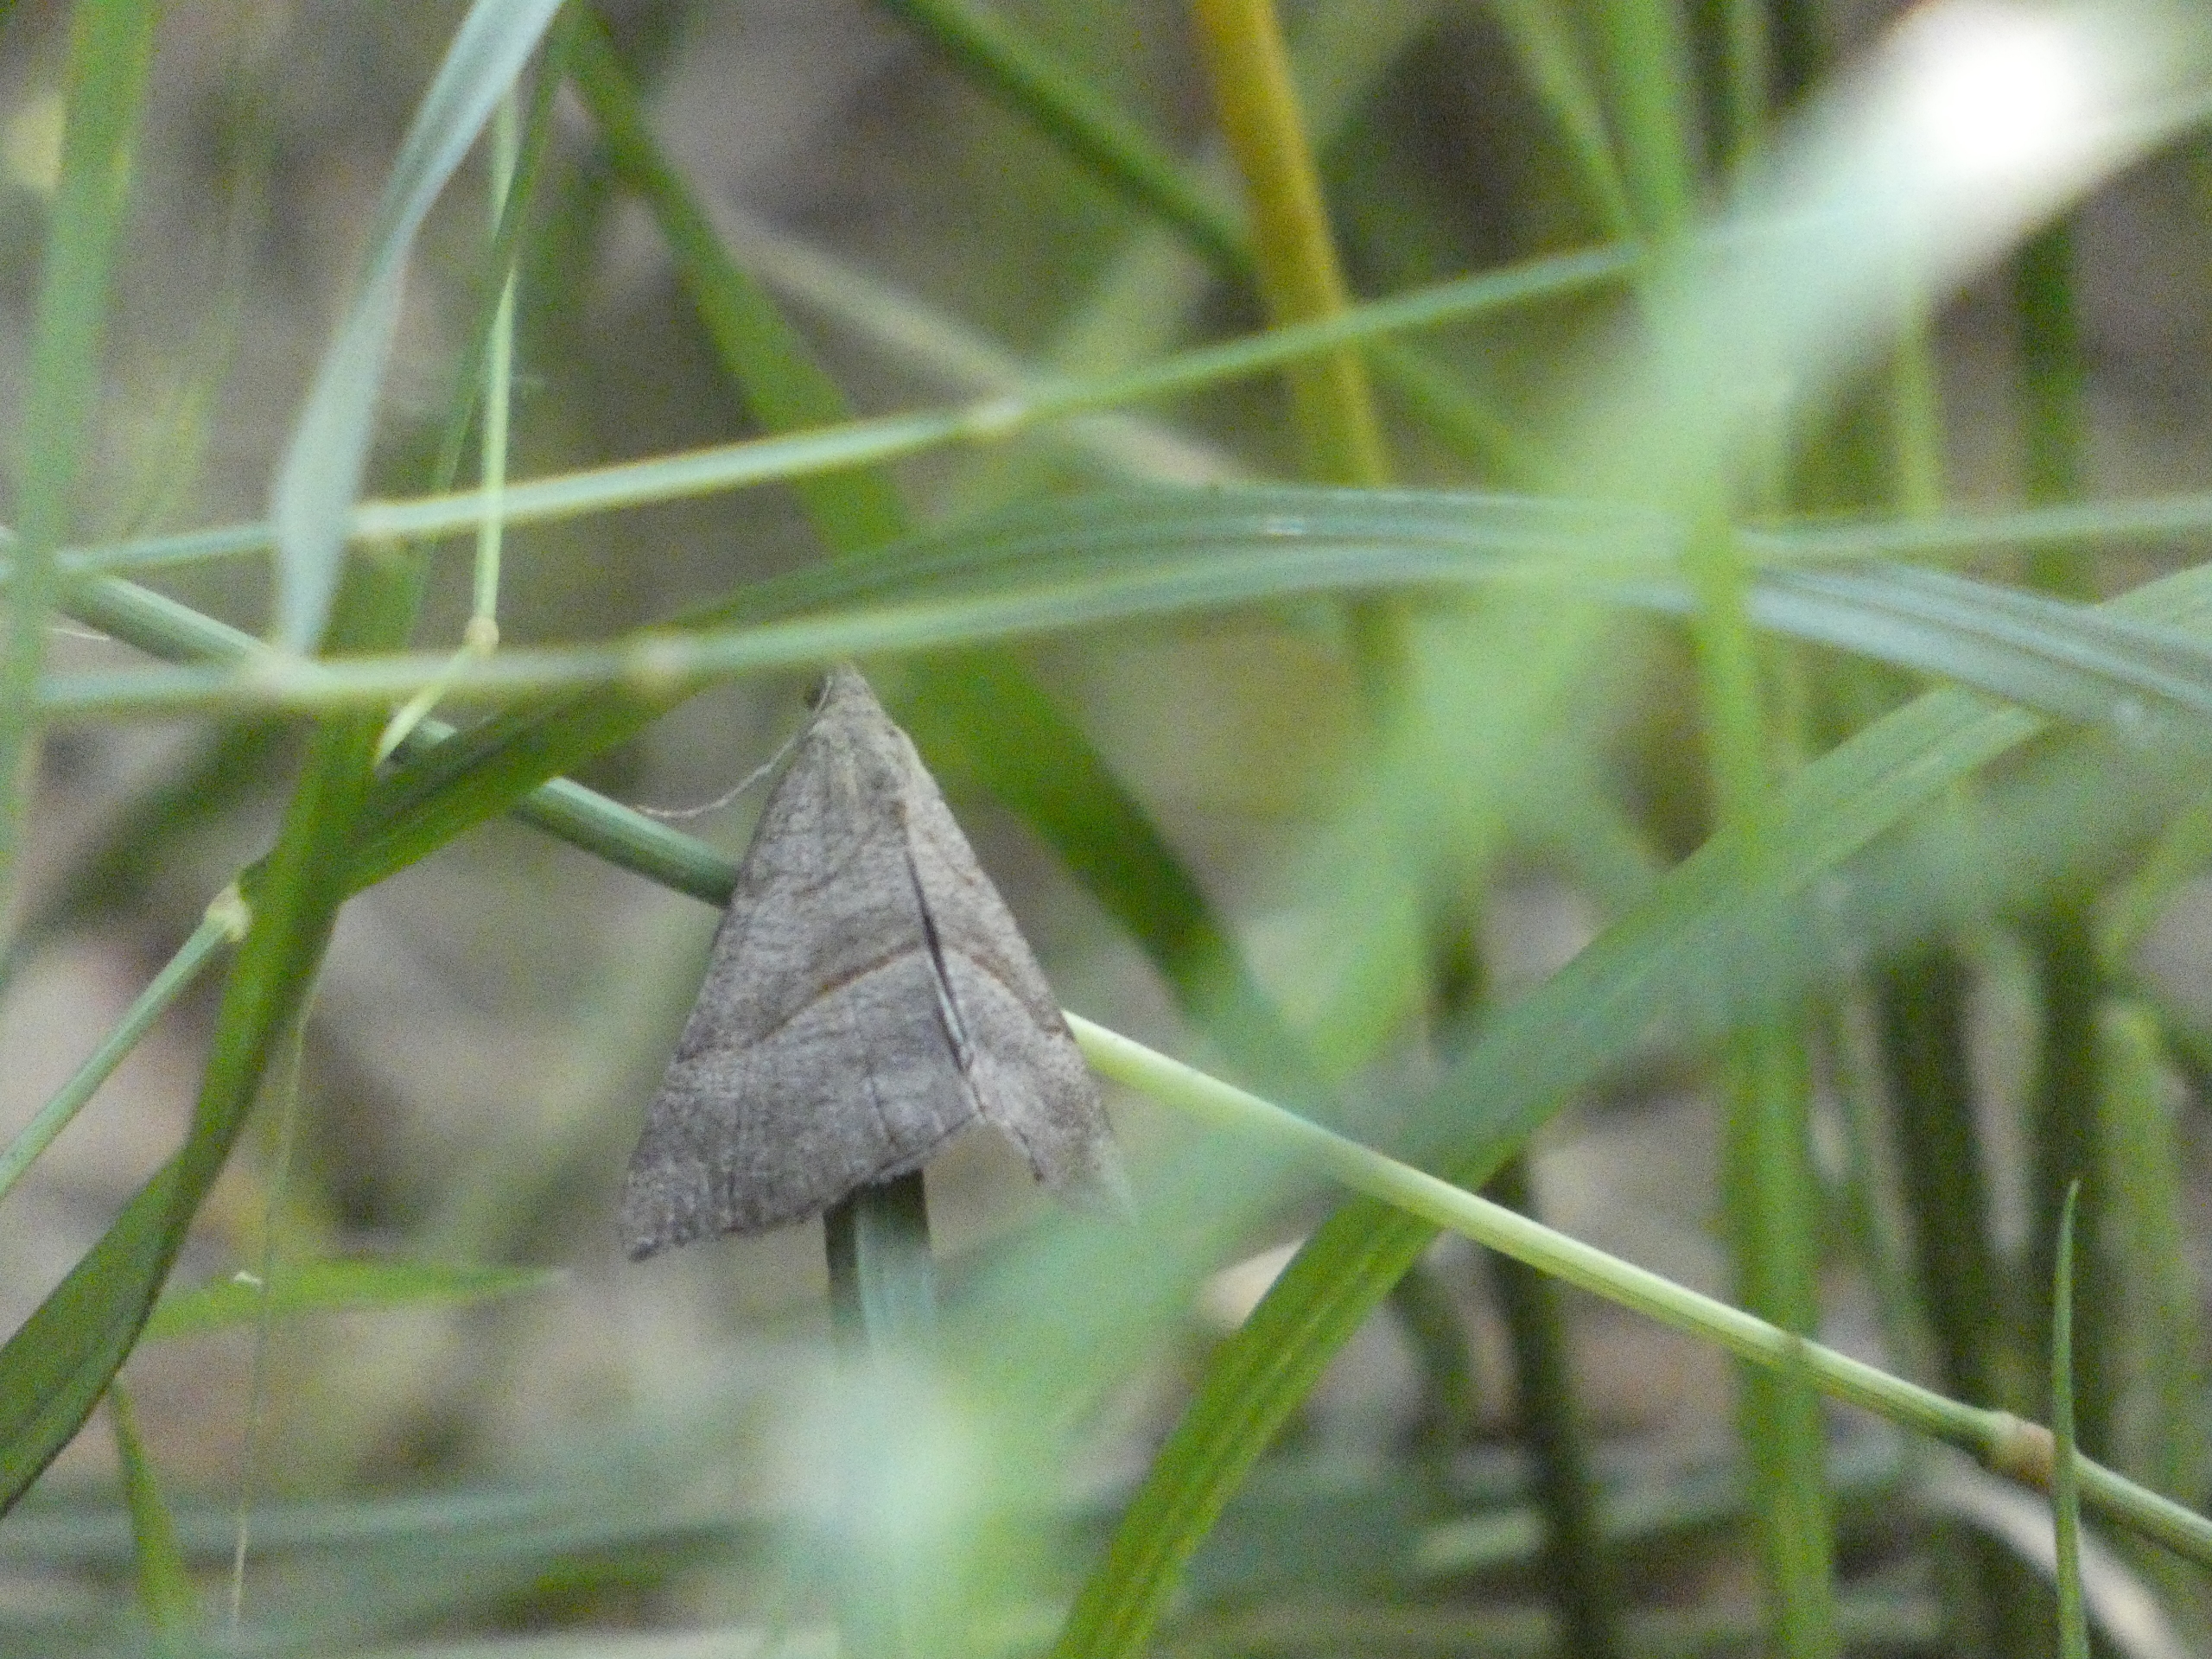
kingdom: Animalia
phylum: Arthropoda
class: Insecta
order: Lepidoptera
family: Erebidae
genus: Hypena
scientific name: Hypena proboscidalis
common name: Snudeugle
